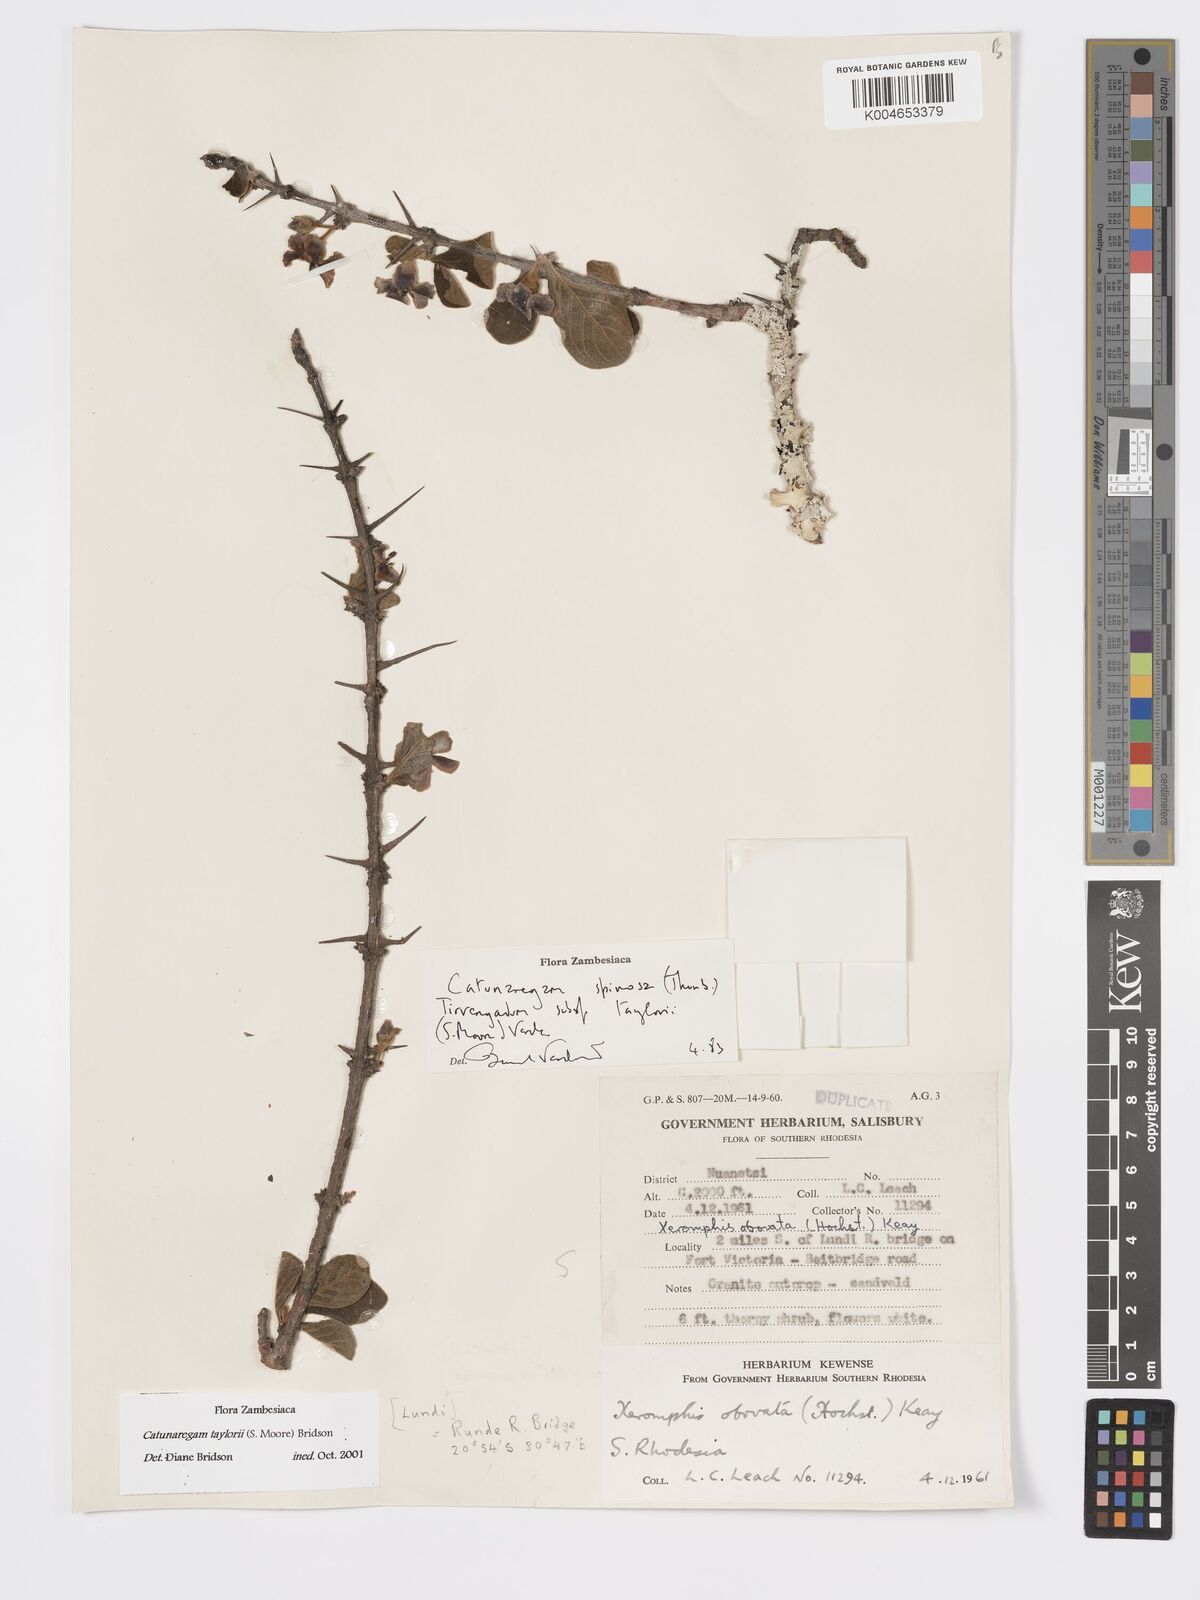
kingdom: Plantae
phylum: Tracheophyta
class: Magnoliopsida
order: Gentianales
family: Rubiaceae
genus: Catunaregam
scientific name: Catunaregam
